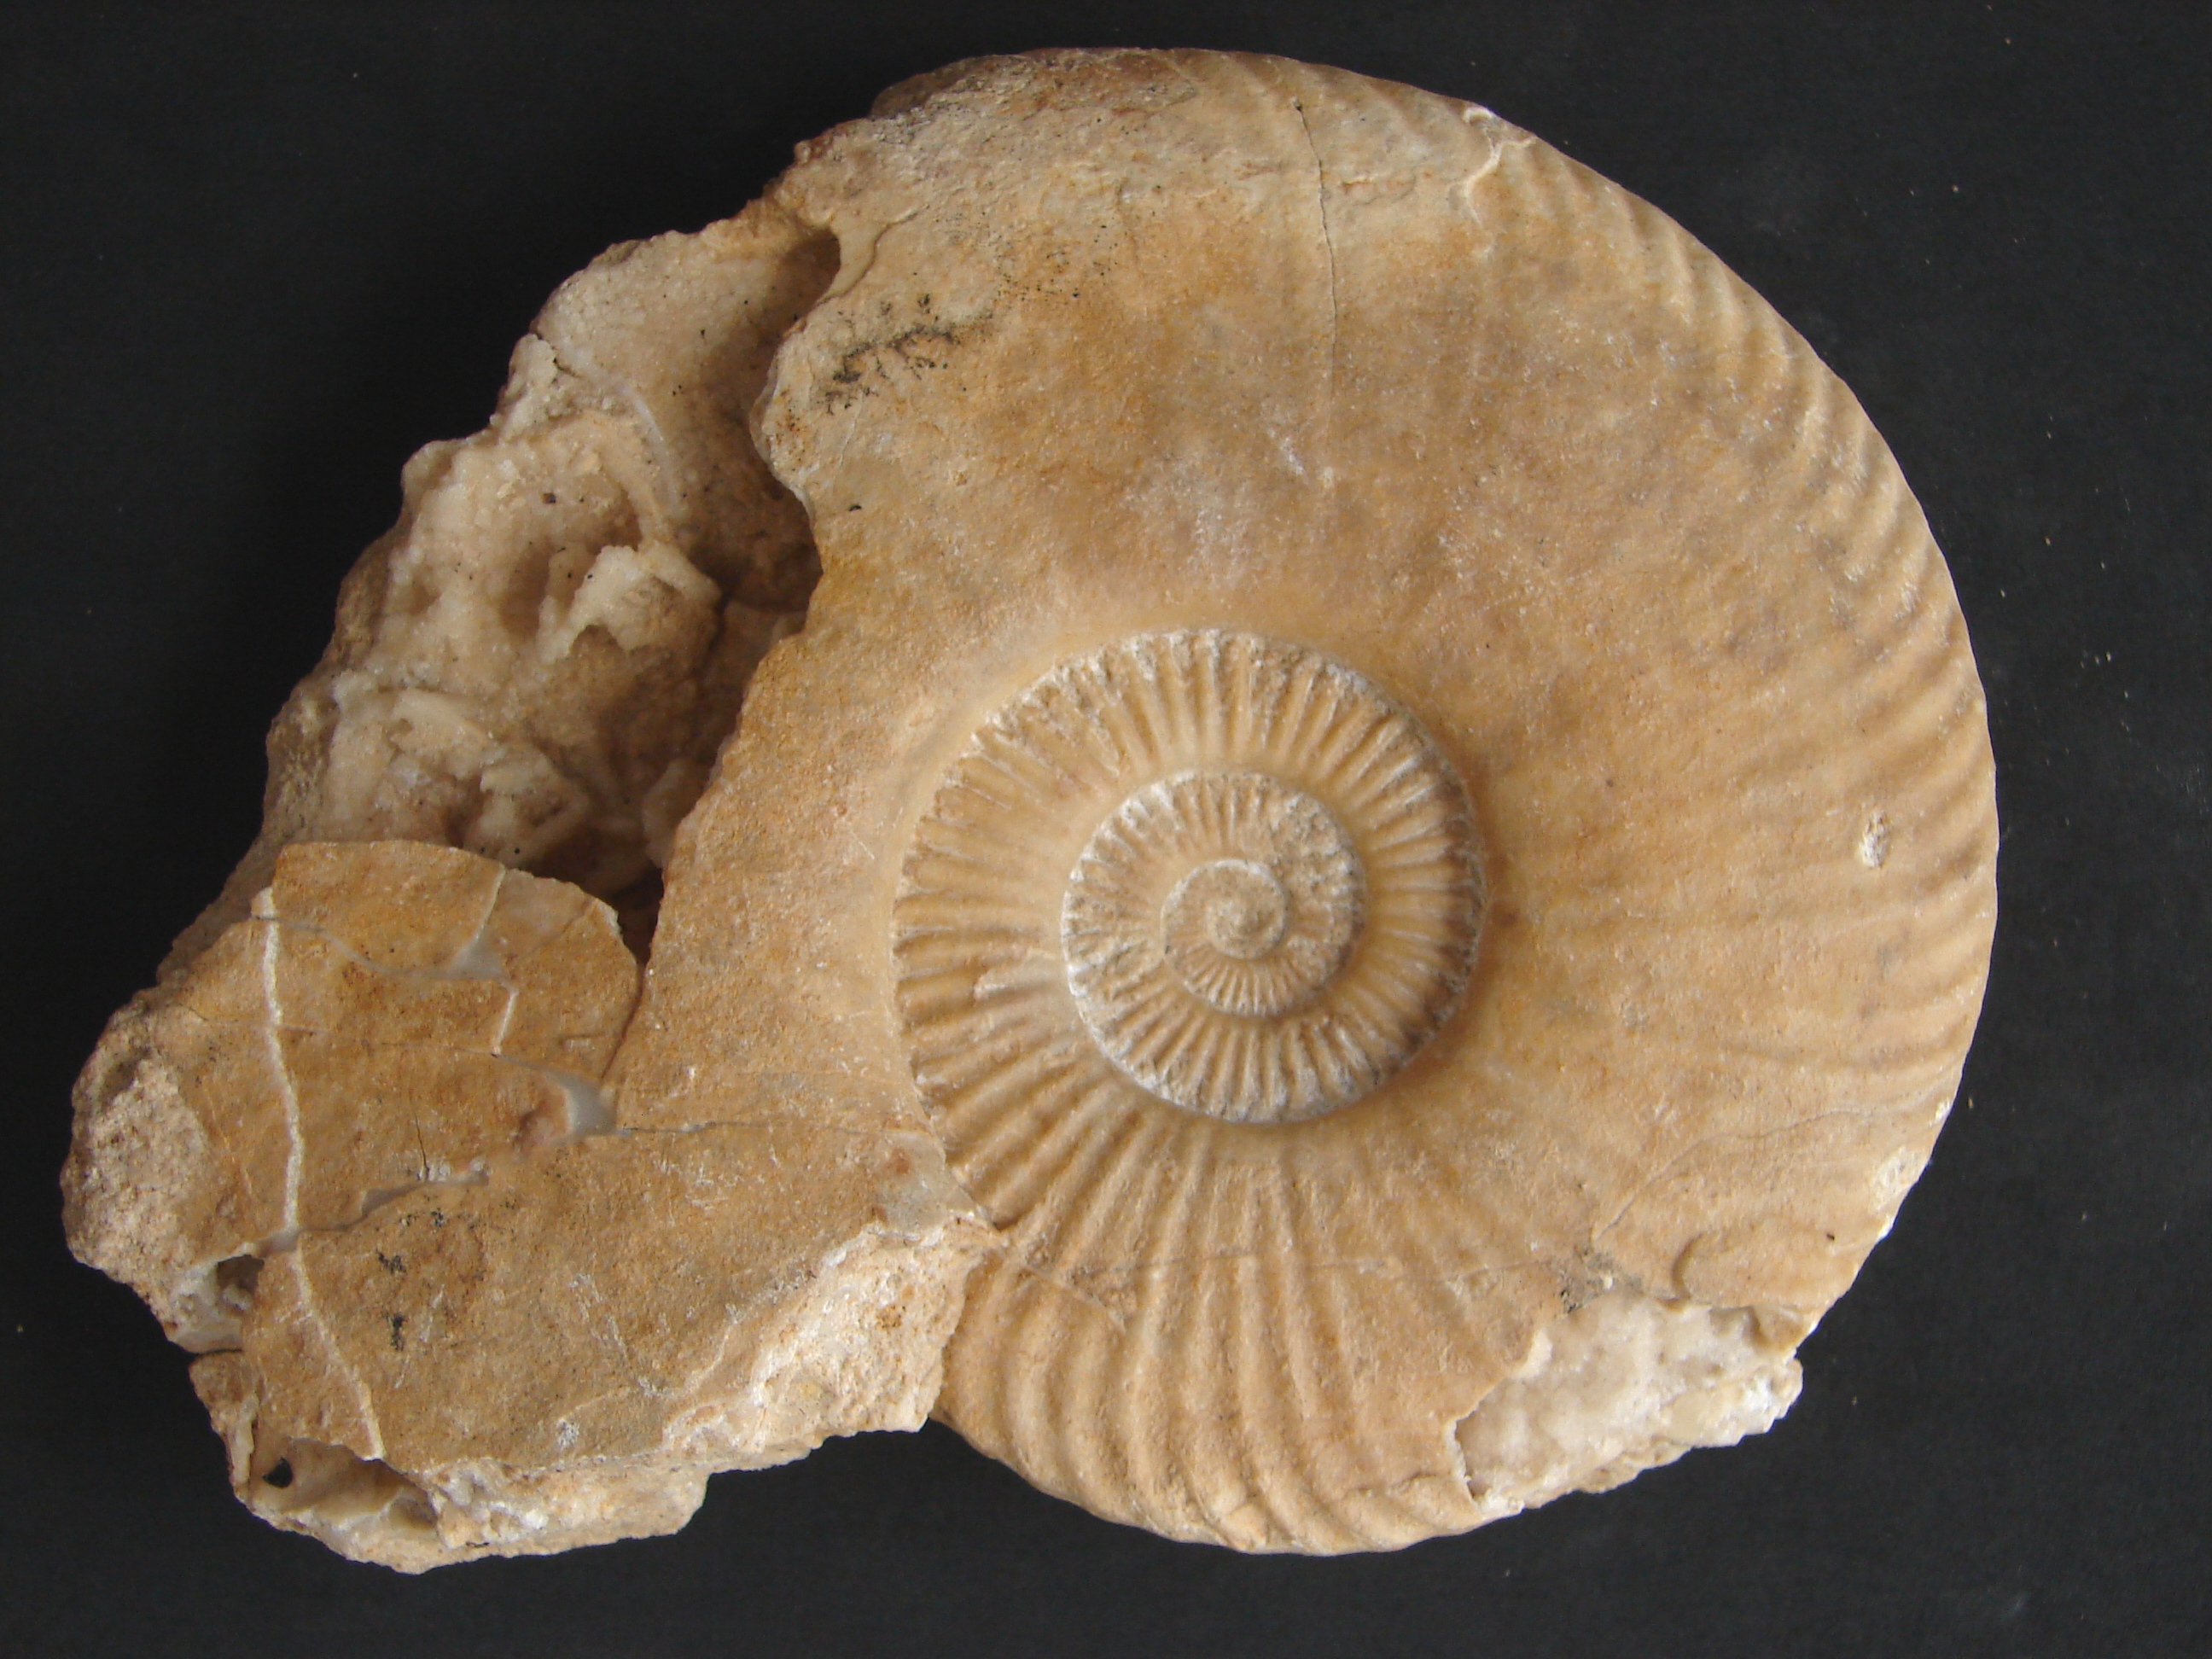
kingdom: Animalia
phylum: Mollusca
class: Cephalopoda
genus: Sulciferites
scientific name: Sulciferites
